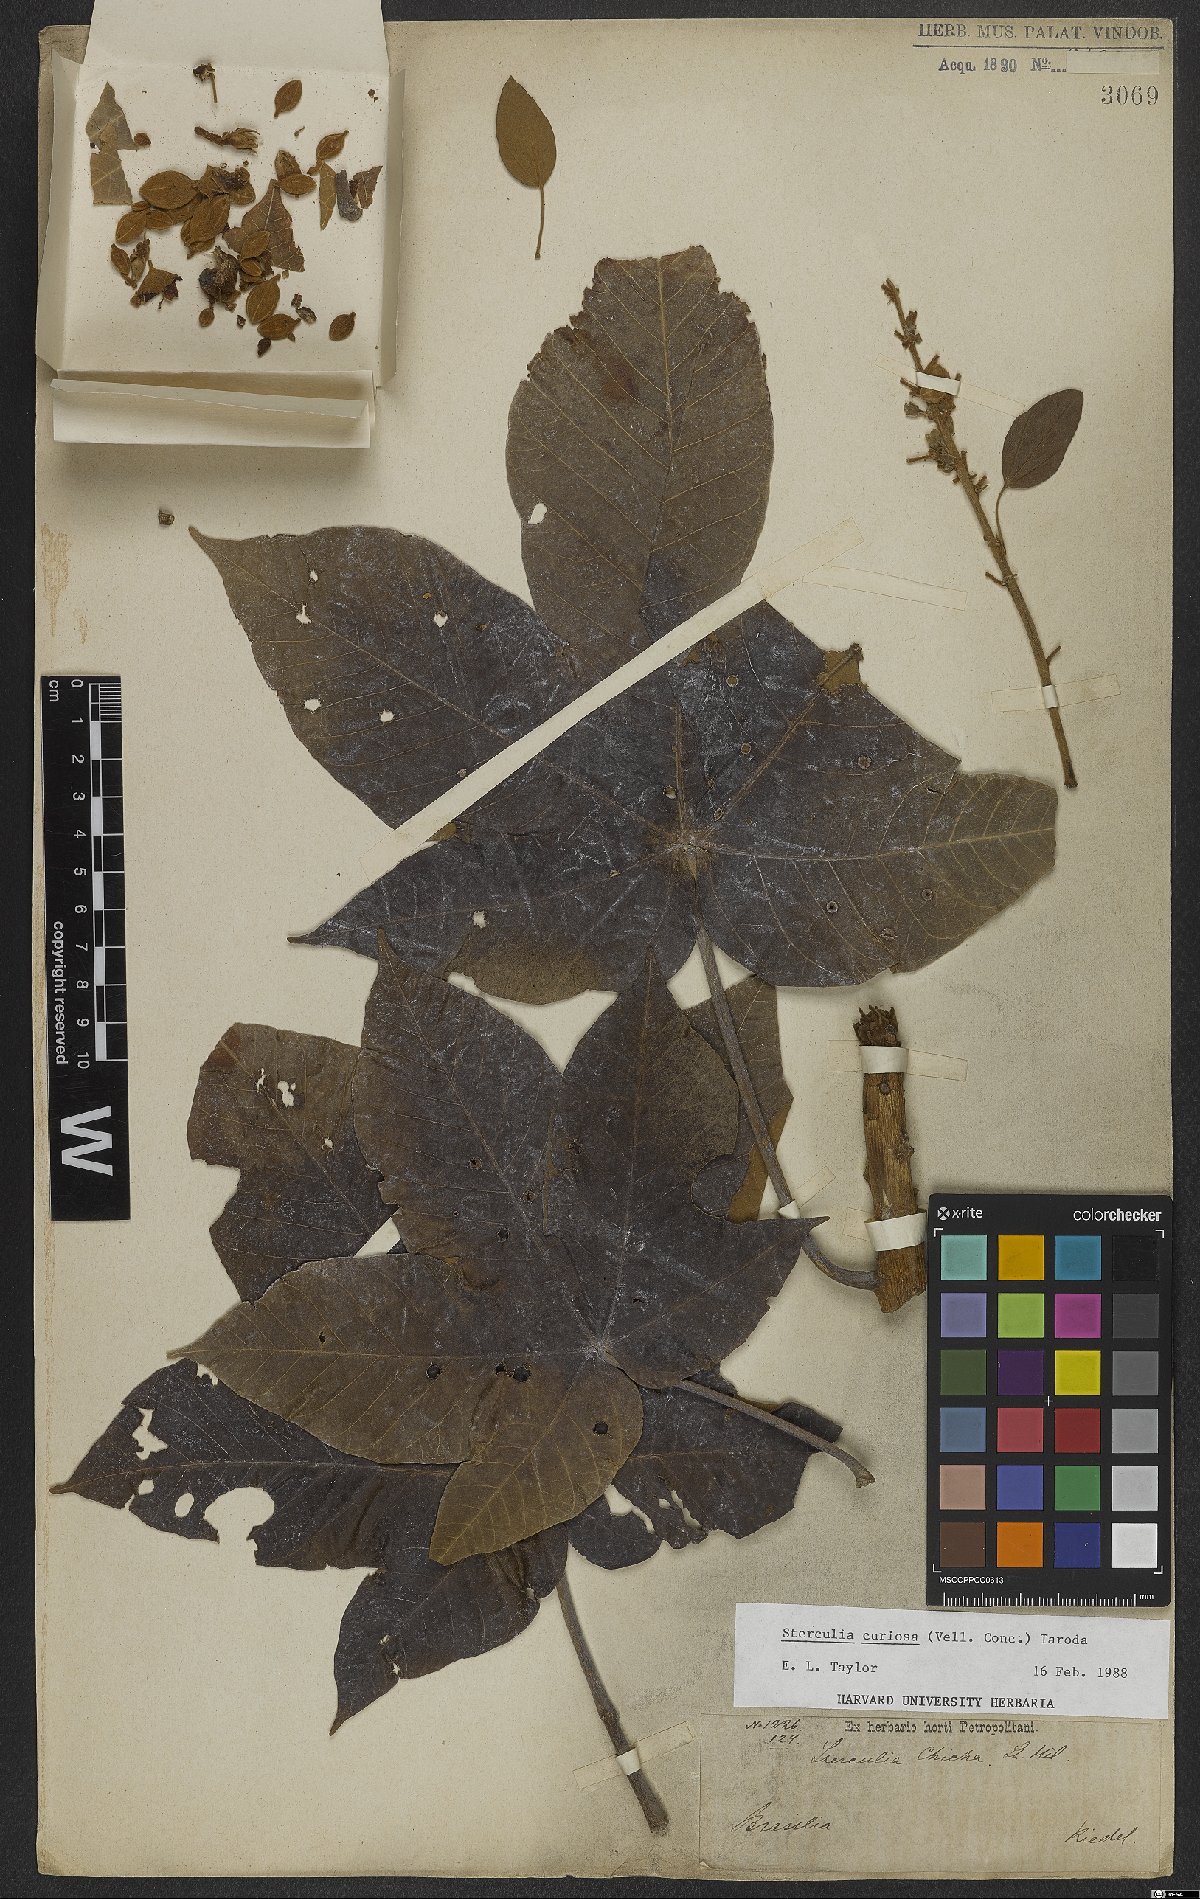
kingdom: Plantae
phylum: Tracheophyta
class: Magnoliopsida
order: Malvales
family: Malvaceae
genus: Sterculia
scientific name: Sterculia curiosa
